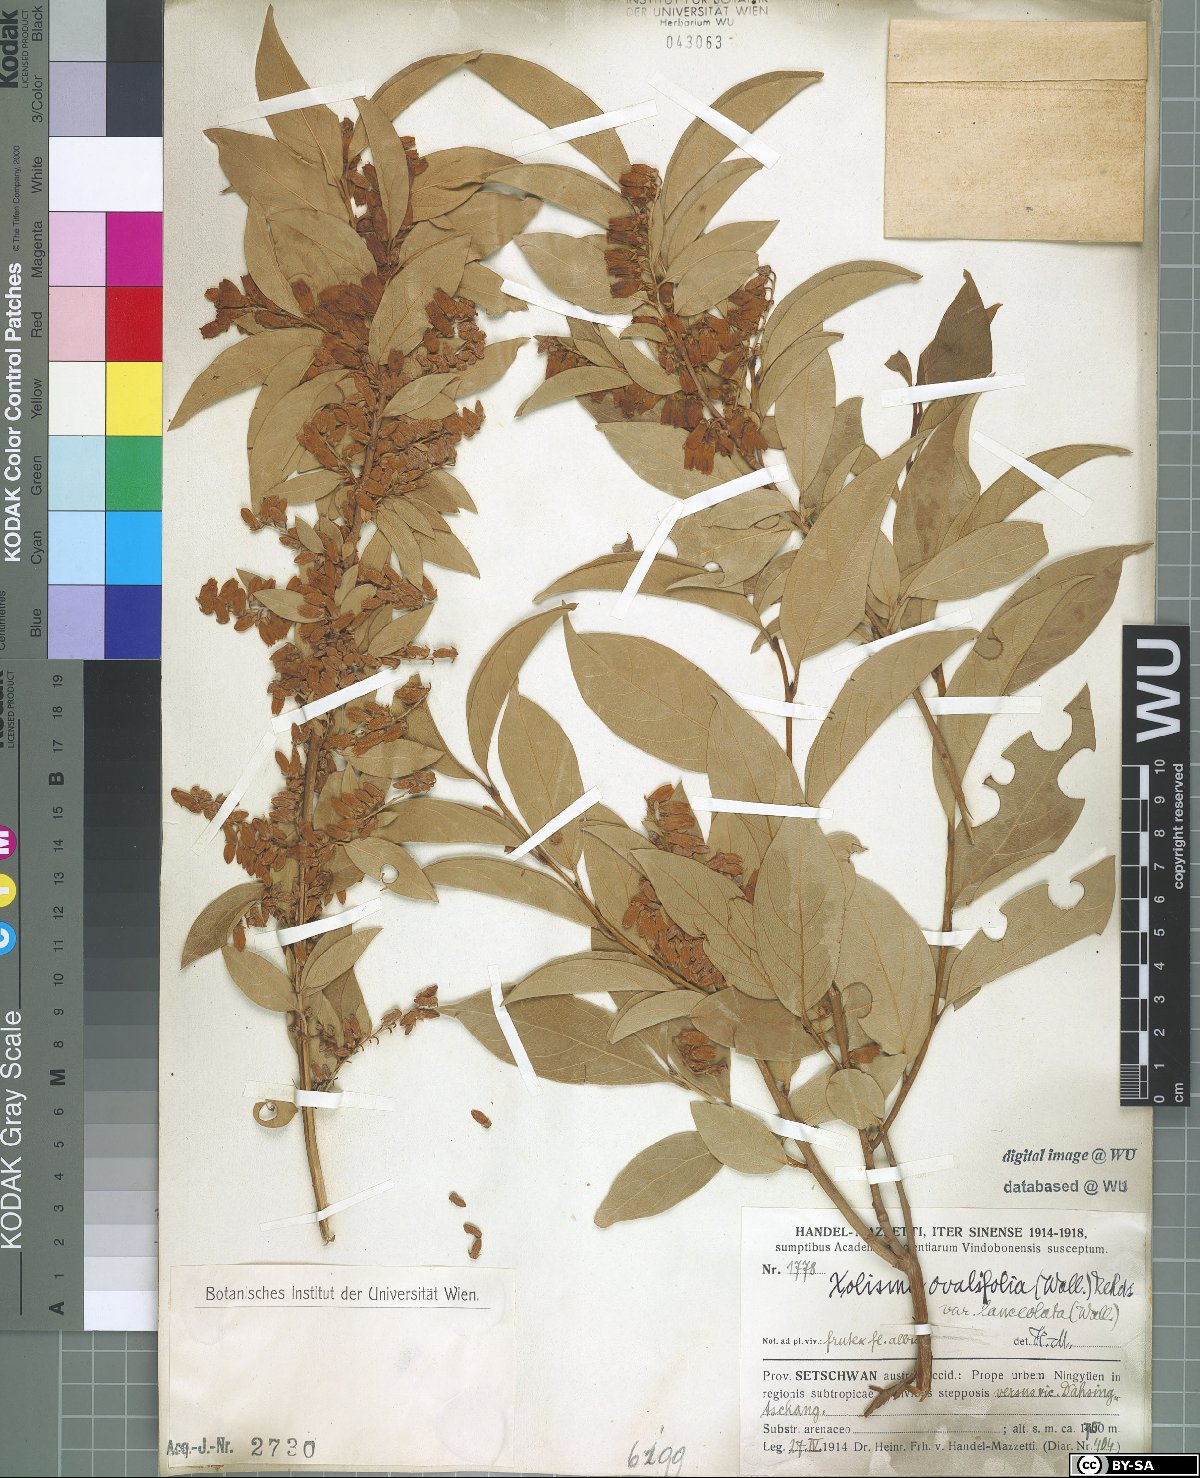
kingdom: Plantae
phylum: Tracheophyta
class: Magnoliopsida
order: Ericales
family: Ericaceae
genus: Lyonia
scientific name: Lyonia ovalifolia
